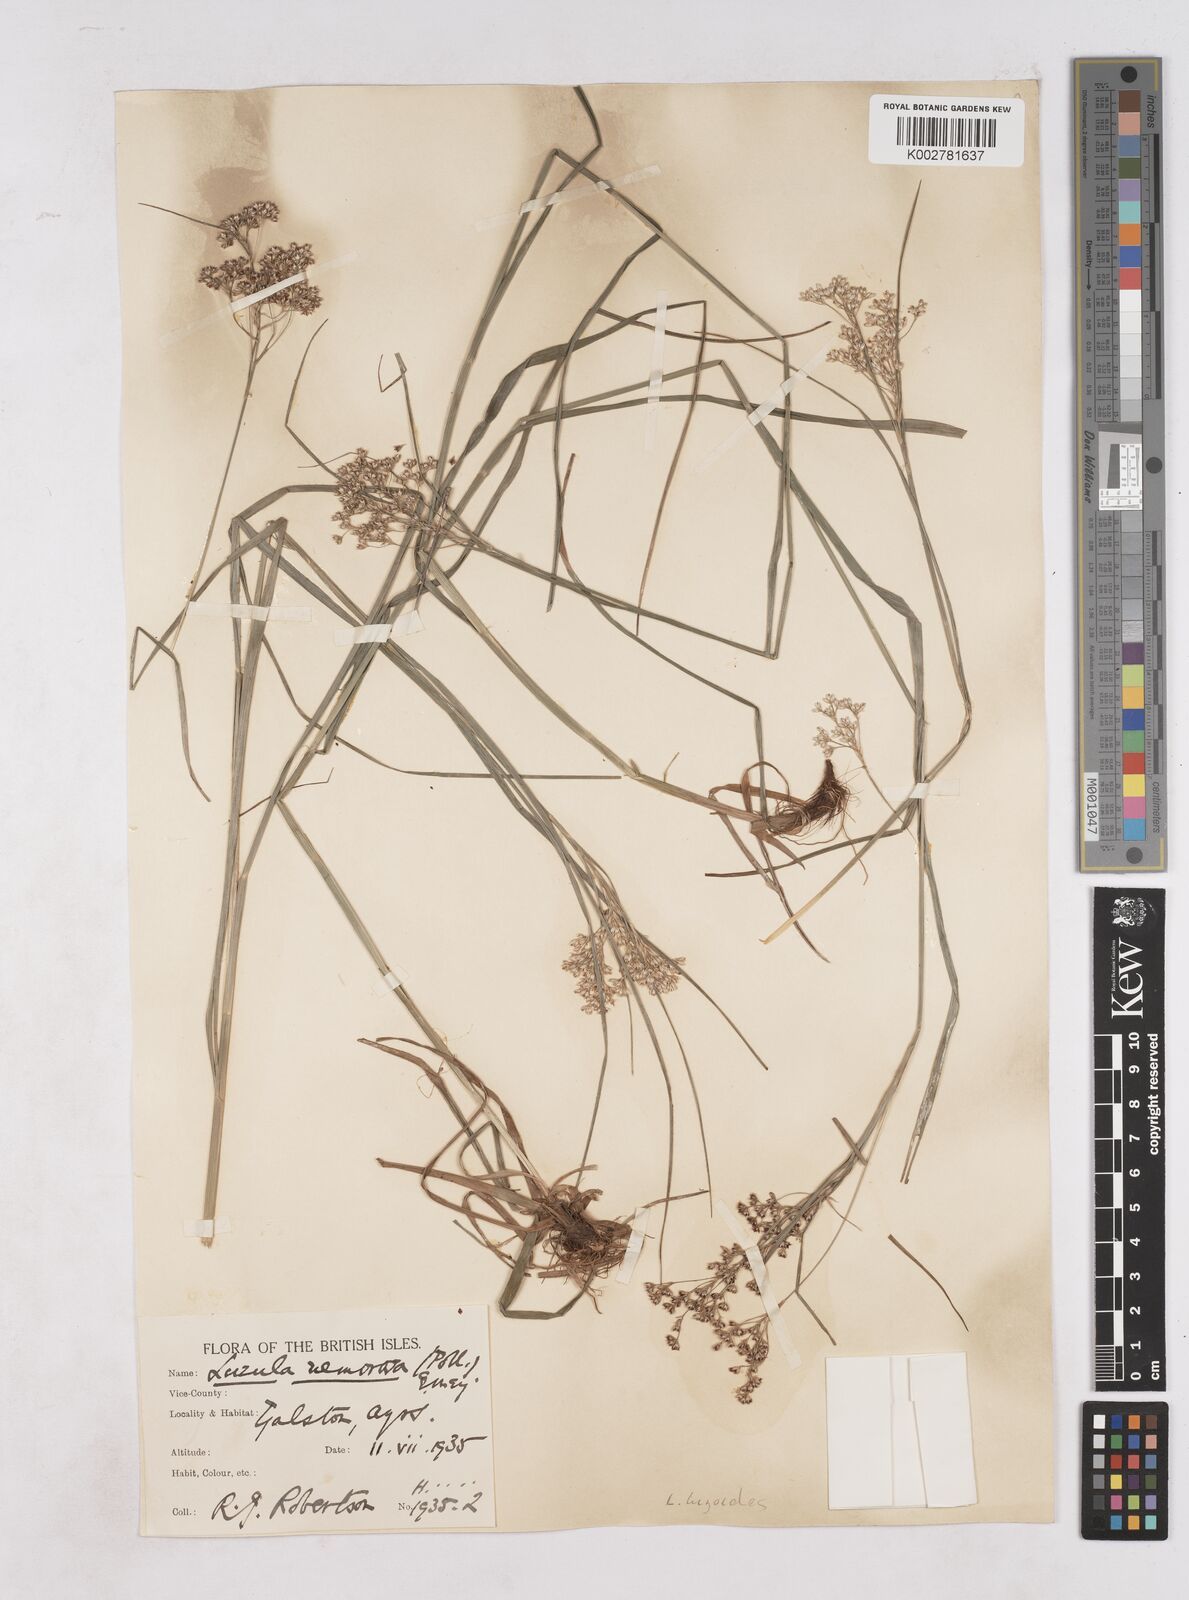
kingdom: Plantae
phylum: Tracheophyta
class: Liliopsida
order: Poales
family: Juncaceae
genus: Luzula
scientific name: Luzula luzuloides
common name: White wood-rush
